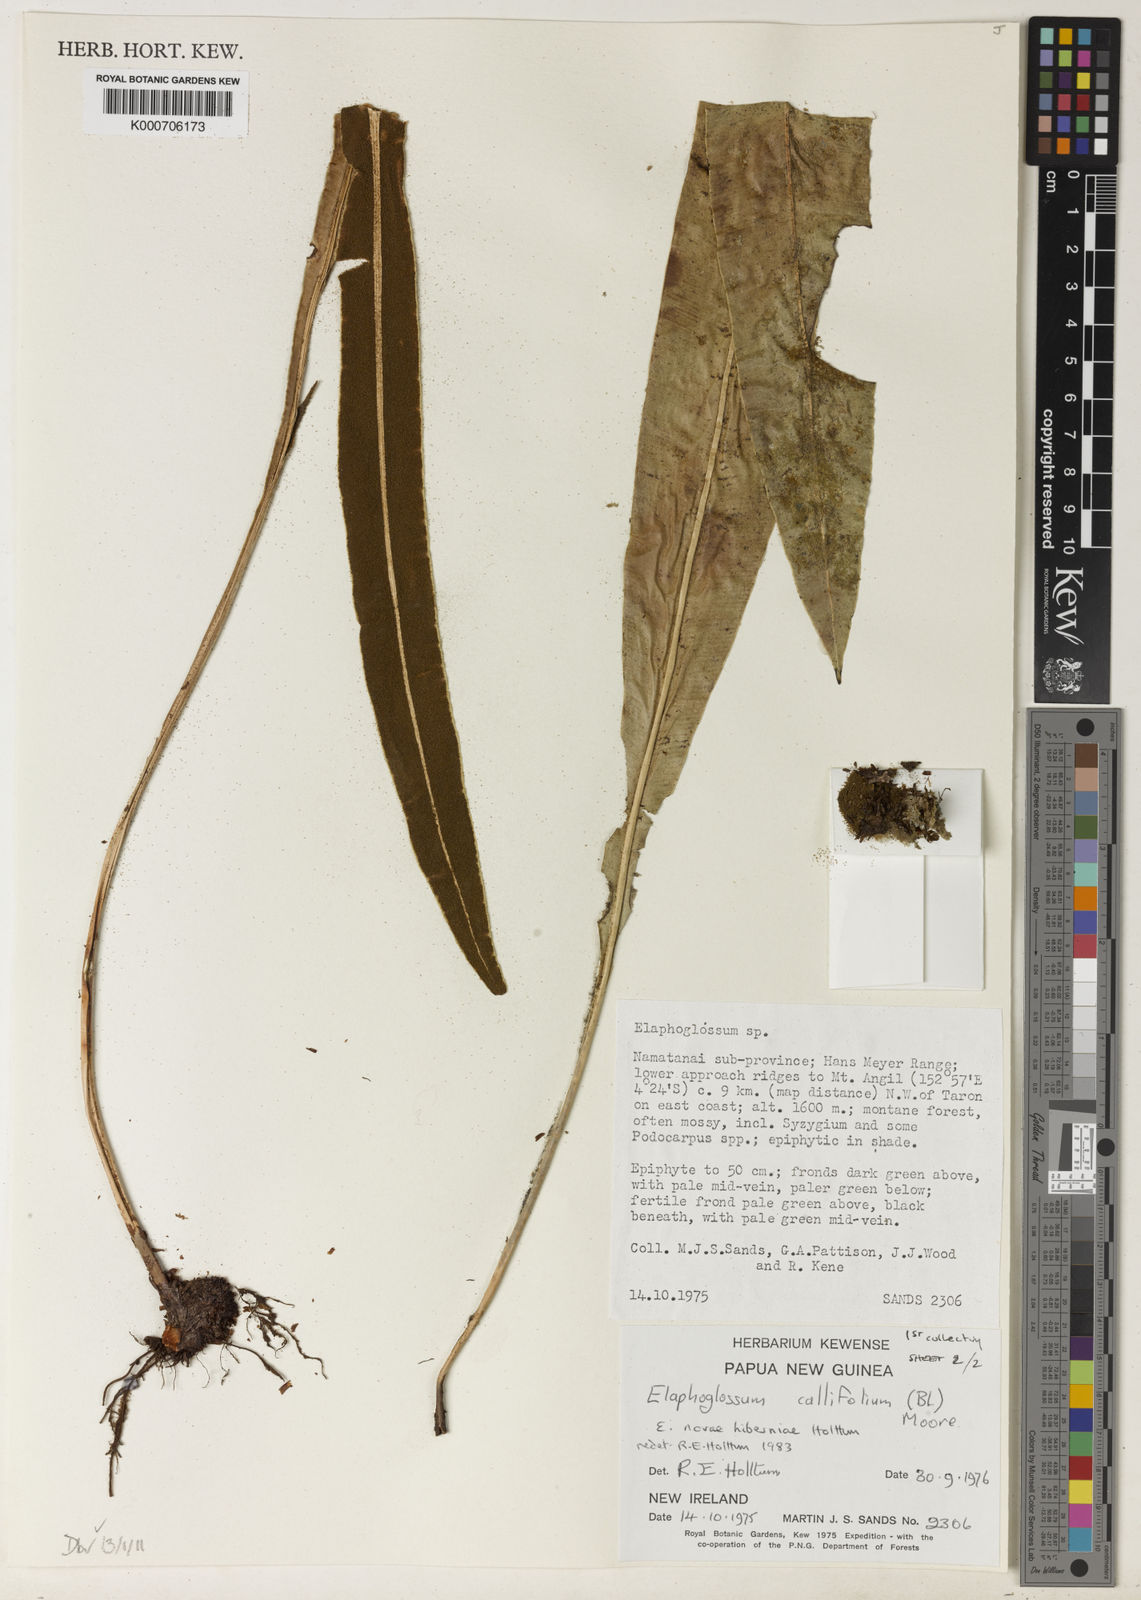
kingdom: Plantae
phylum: Tracheophyta
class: Polypodiopsida
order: Polypodiales
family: Dryopteridaceae
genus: Elaphoglossum
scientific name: Elaphoglossum
